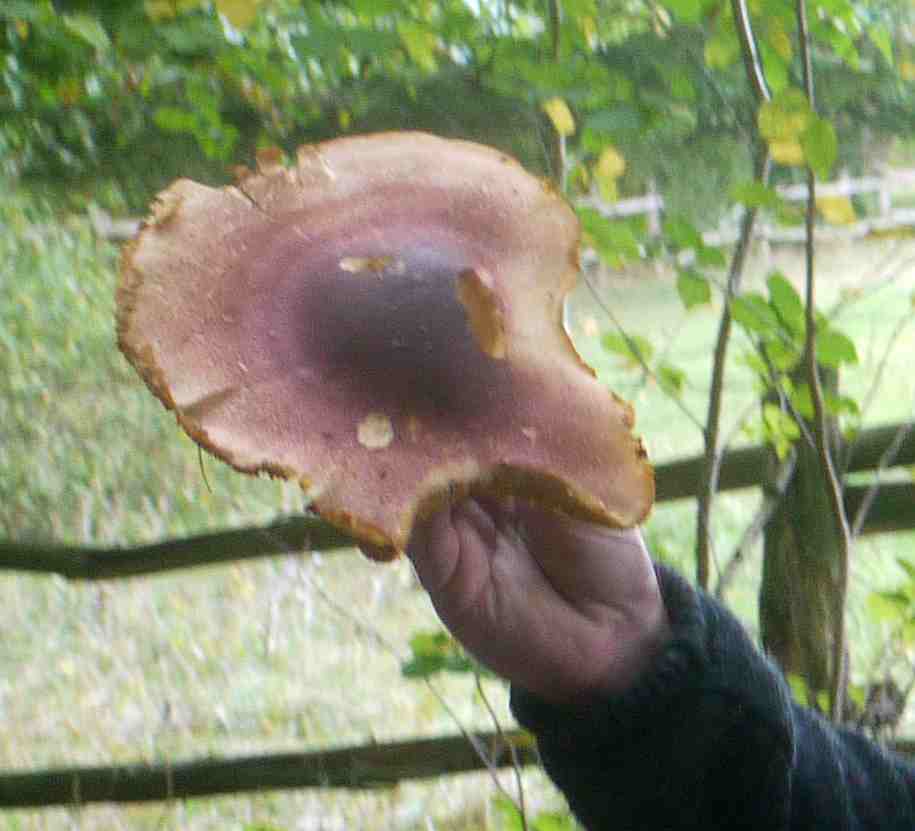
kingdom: Fungi
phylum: Basidiomycota
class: Agaricomycetes
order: Agaricales
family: Tricholomataceae
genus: Tricholomopsis
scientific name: Tricholomopsis rutilans
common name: purpur-væbnerhat
